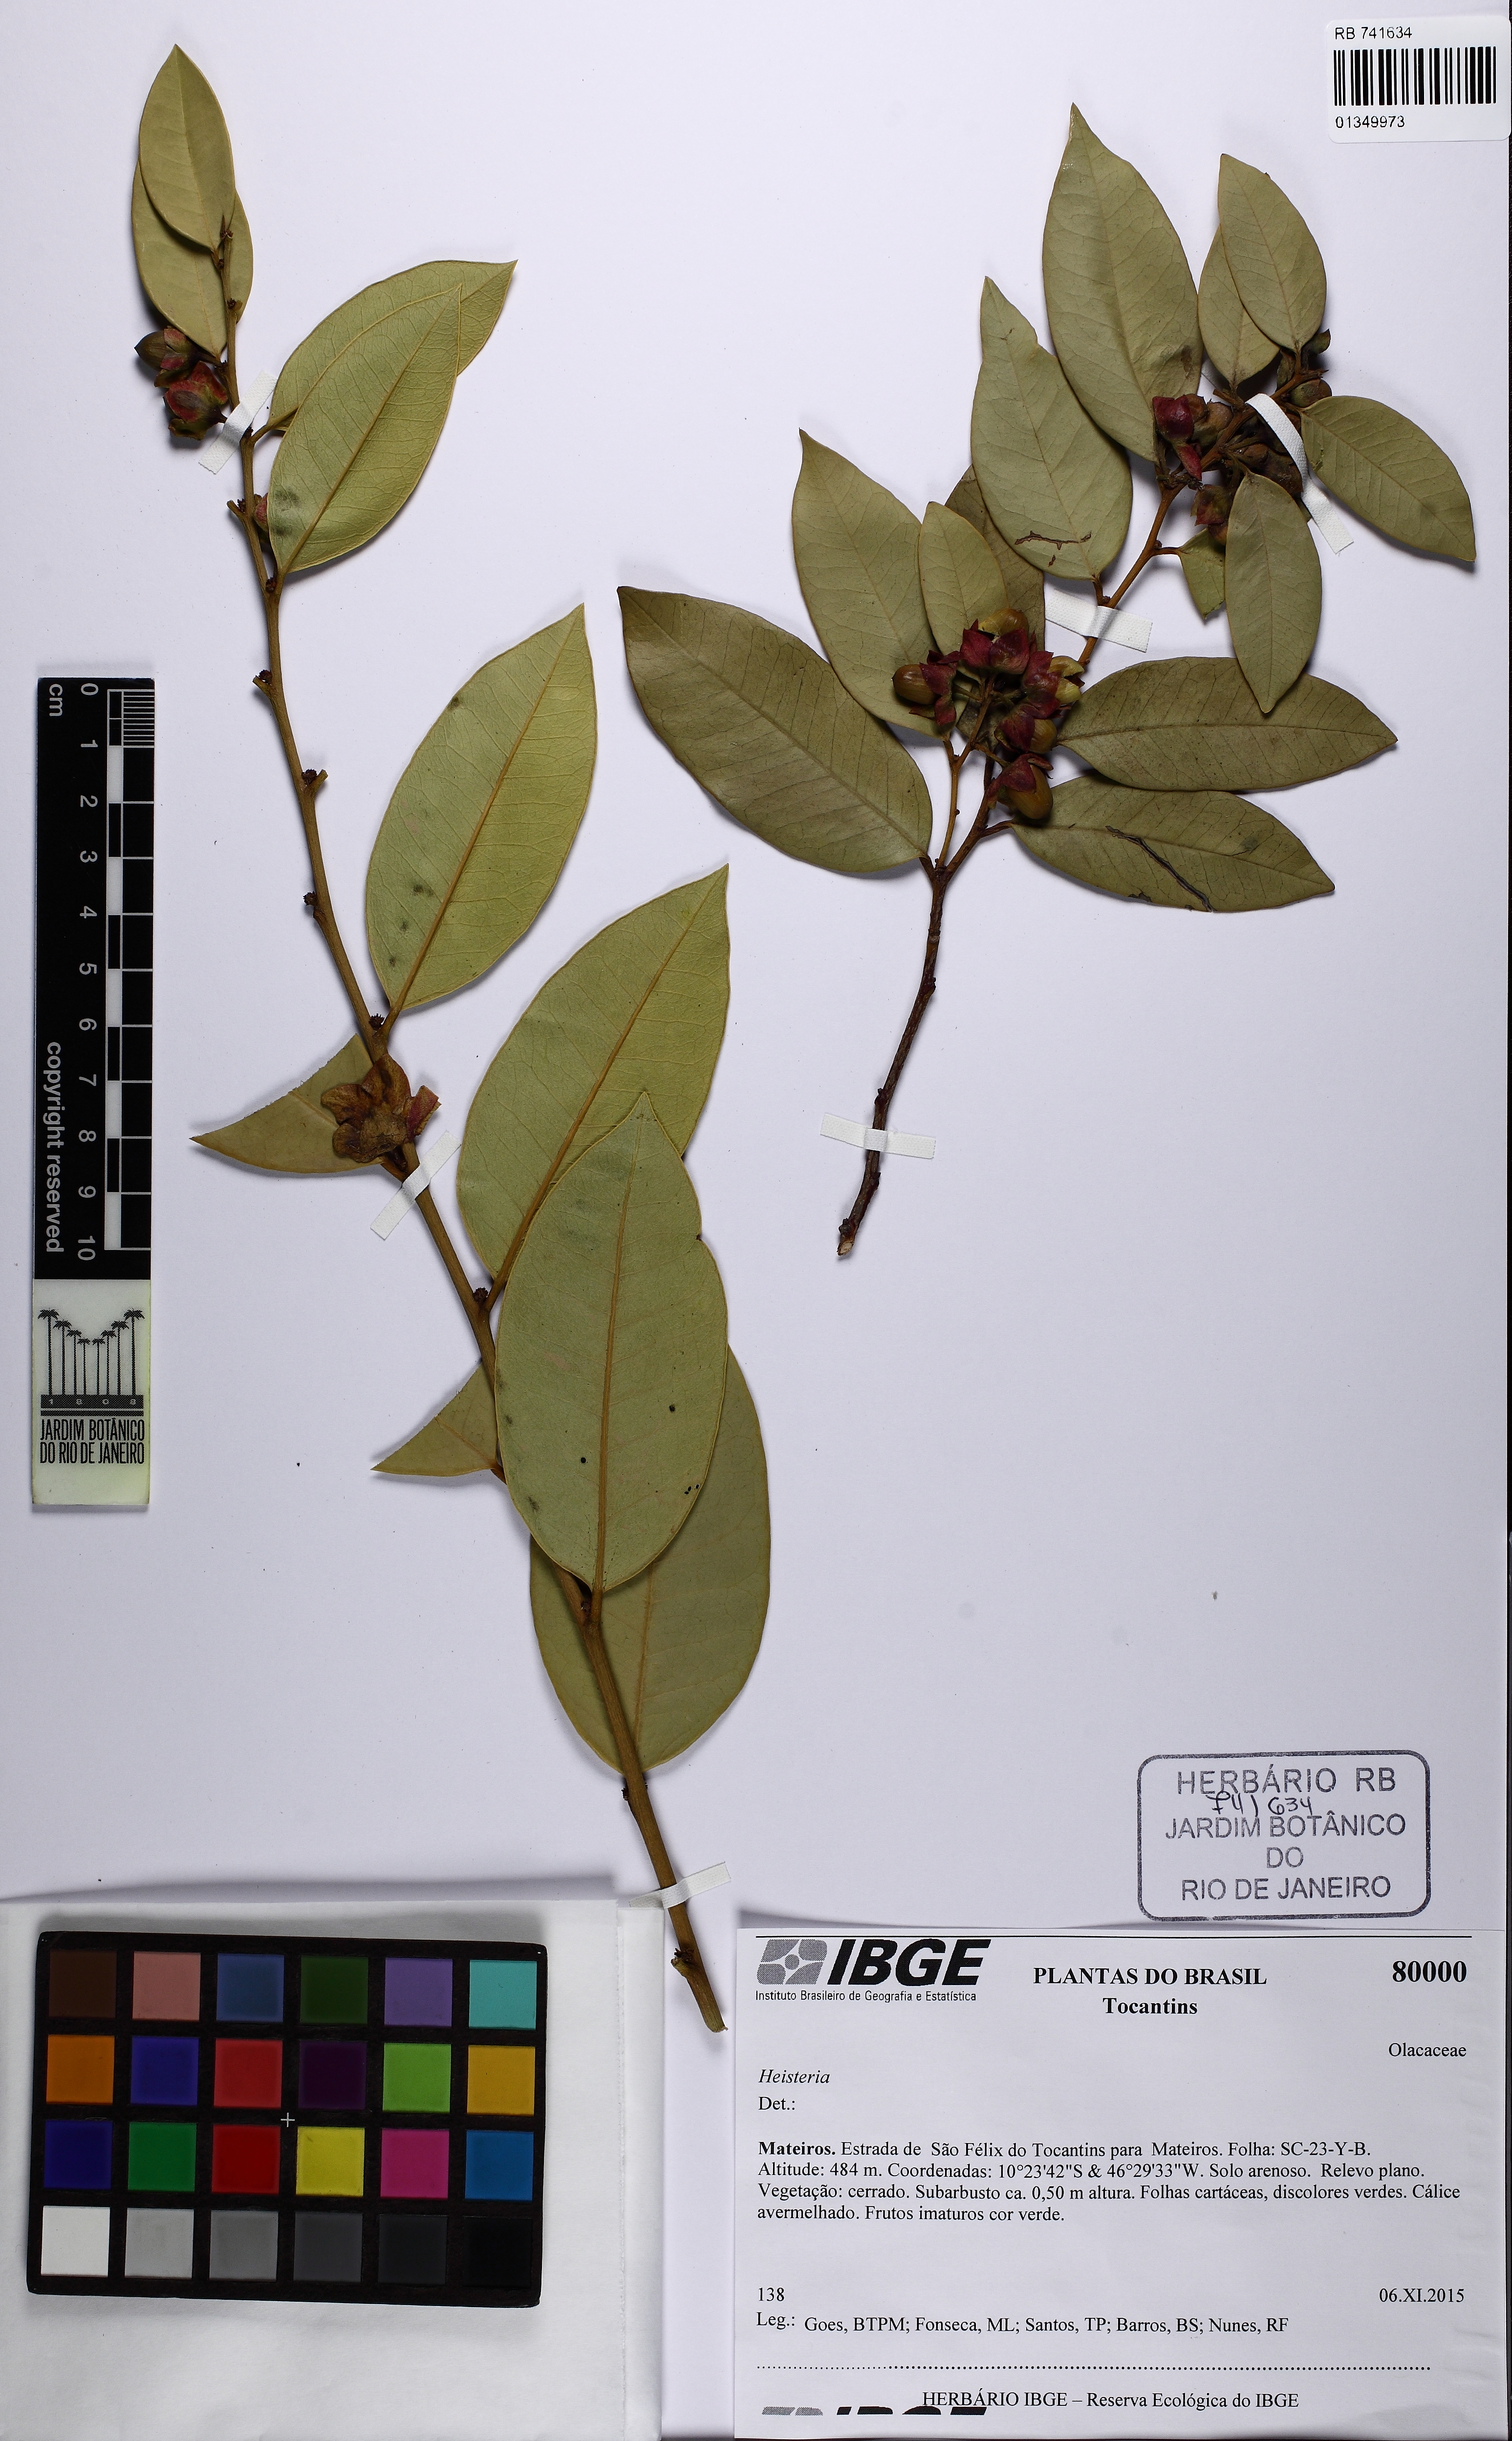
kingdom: Plantae
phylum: Tracheophyta
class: Magnoliopsida
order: Santalales
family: Erythropalaceae
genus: Heisteria
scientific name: Heisteria ovata
